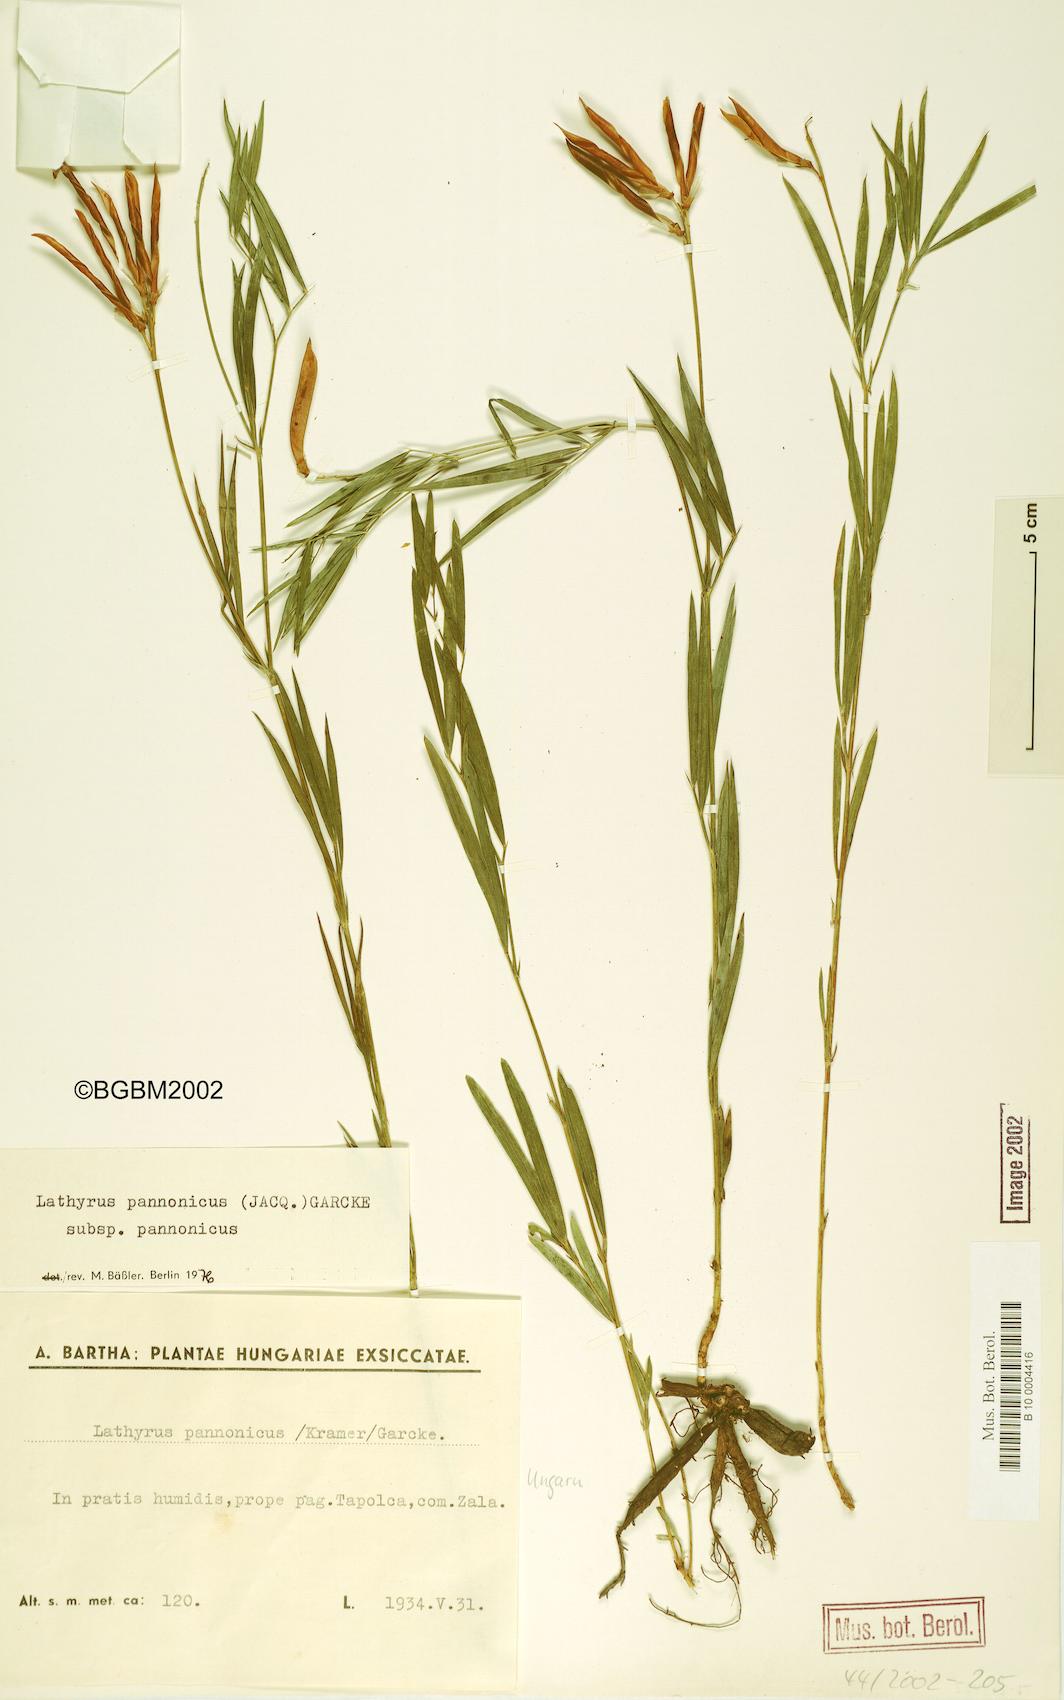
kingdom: Plantae
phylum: Tracheophyta
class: Magnoliopsida
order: Fabales
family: Fabaceae
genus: Lathyrus
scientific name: Lathyrus pannonicus
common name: Pea
